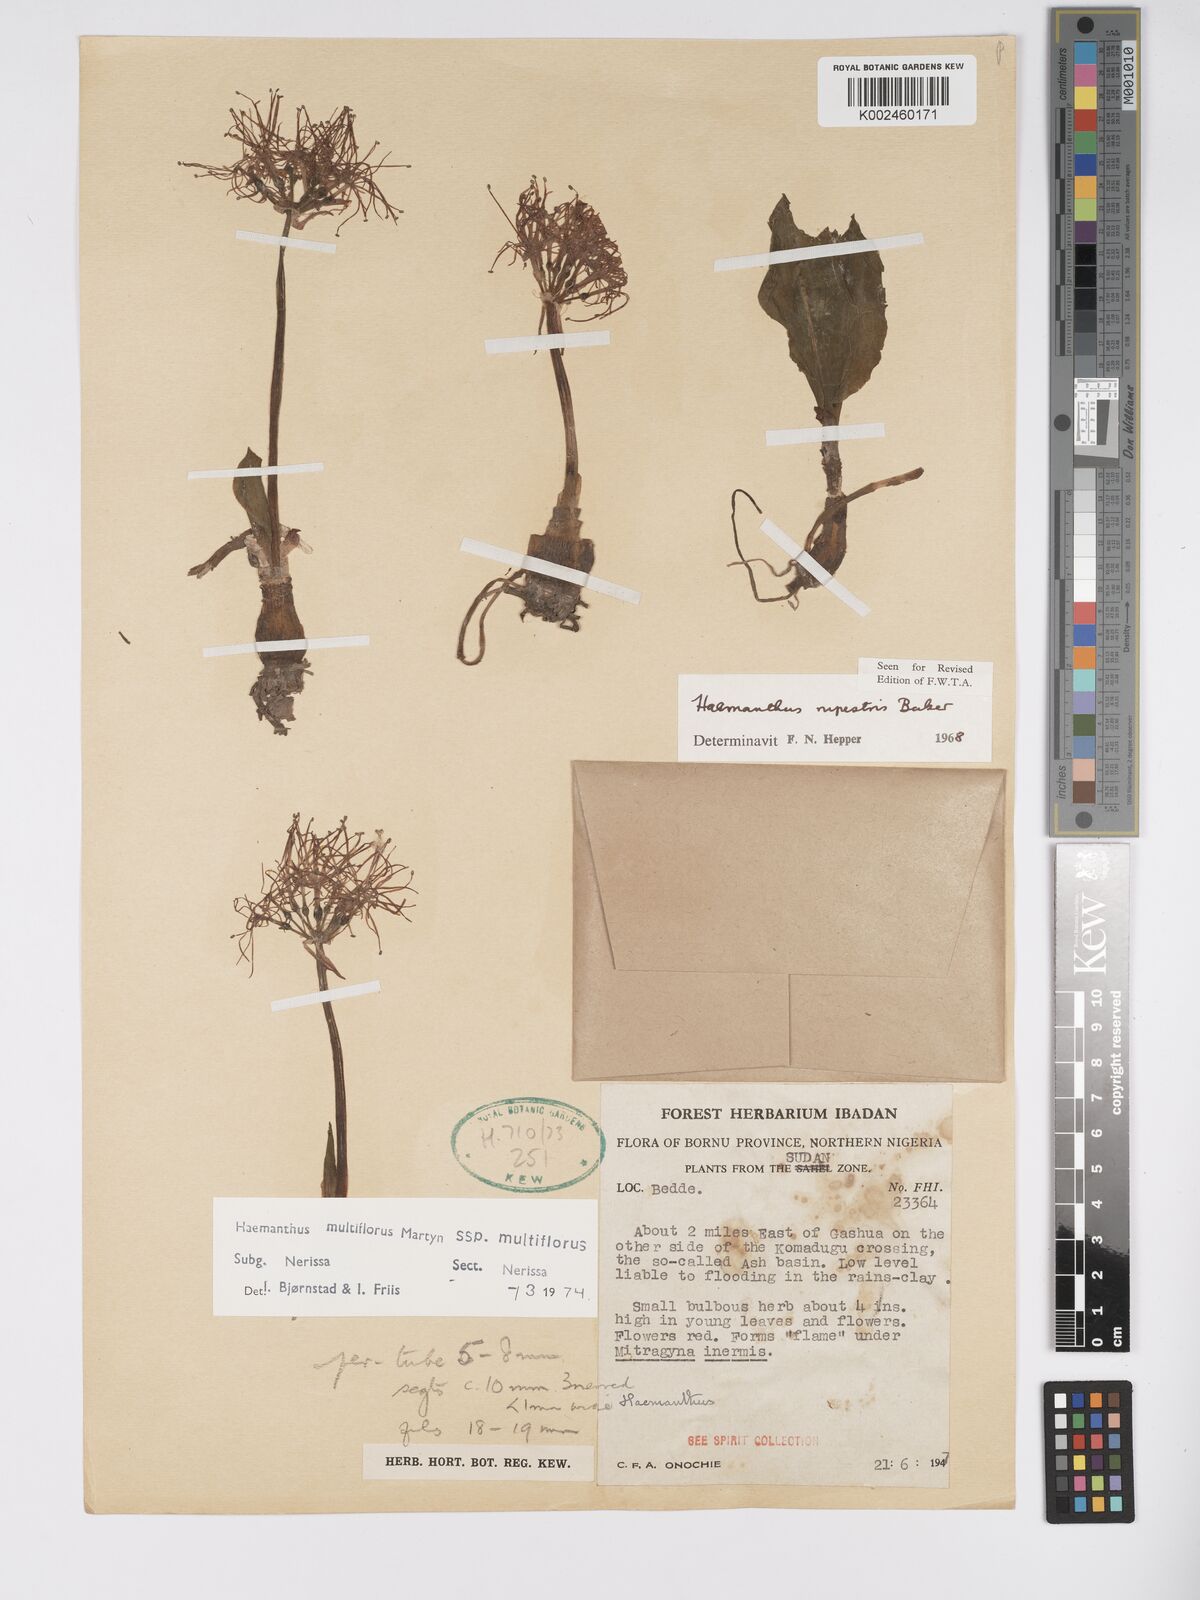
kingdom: Plantae
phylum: Tracheophyta
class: Liliopsida
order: Asparagales
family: Amaryllidaceae
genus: Scadoxus
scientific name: Scadoxus multiflorus
